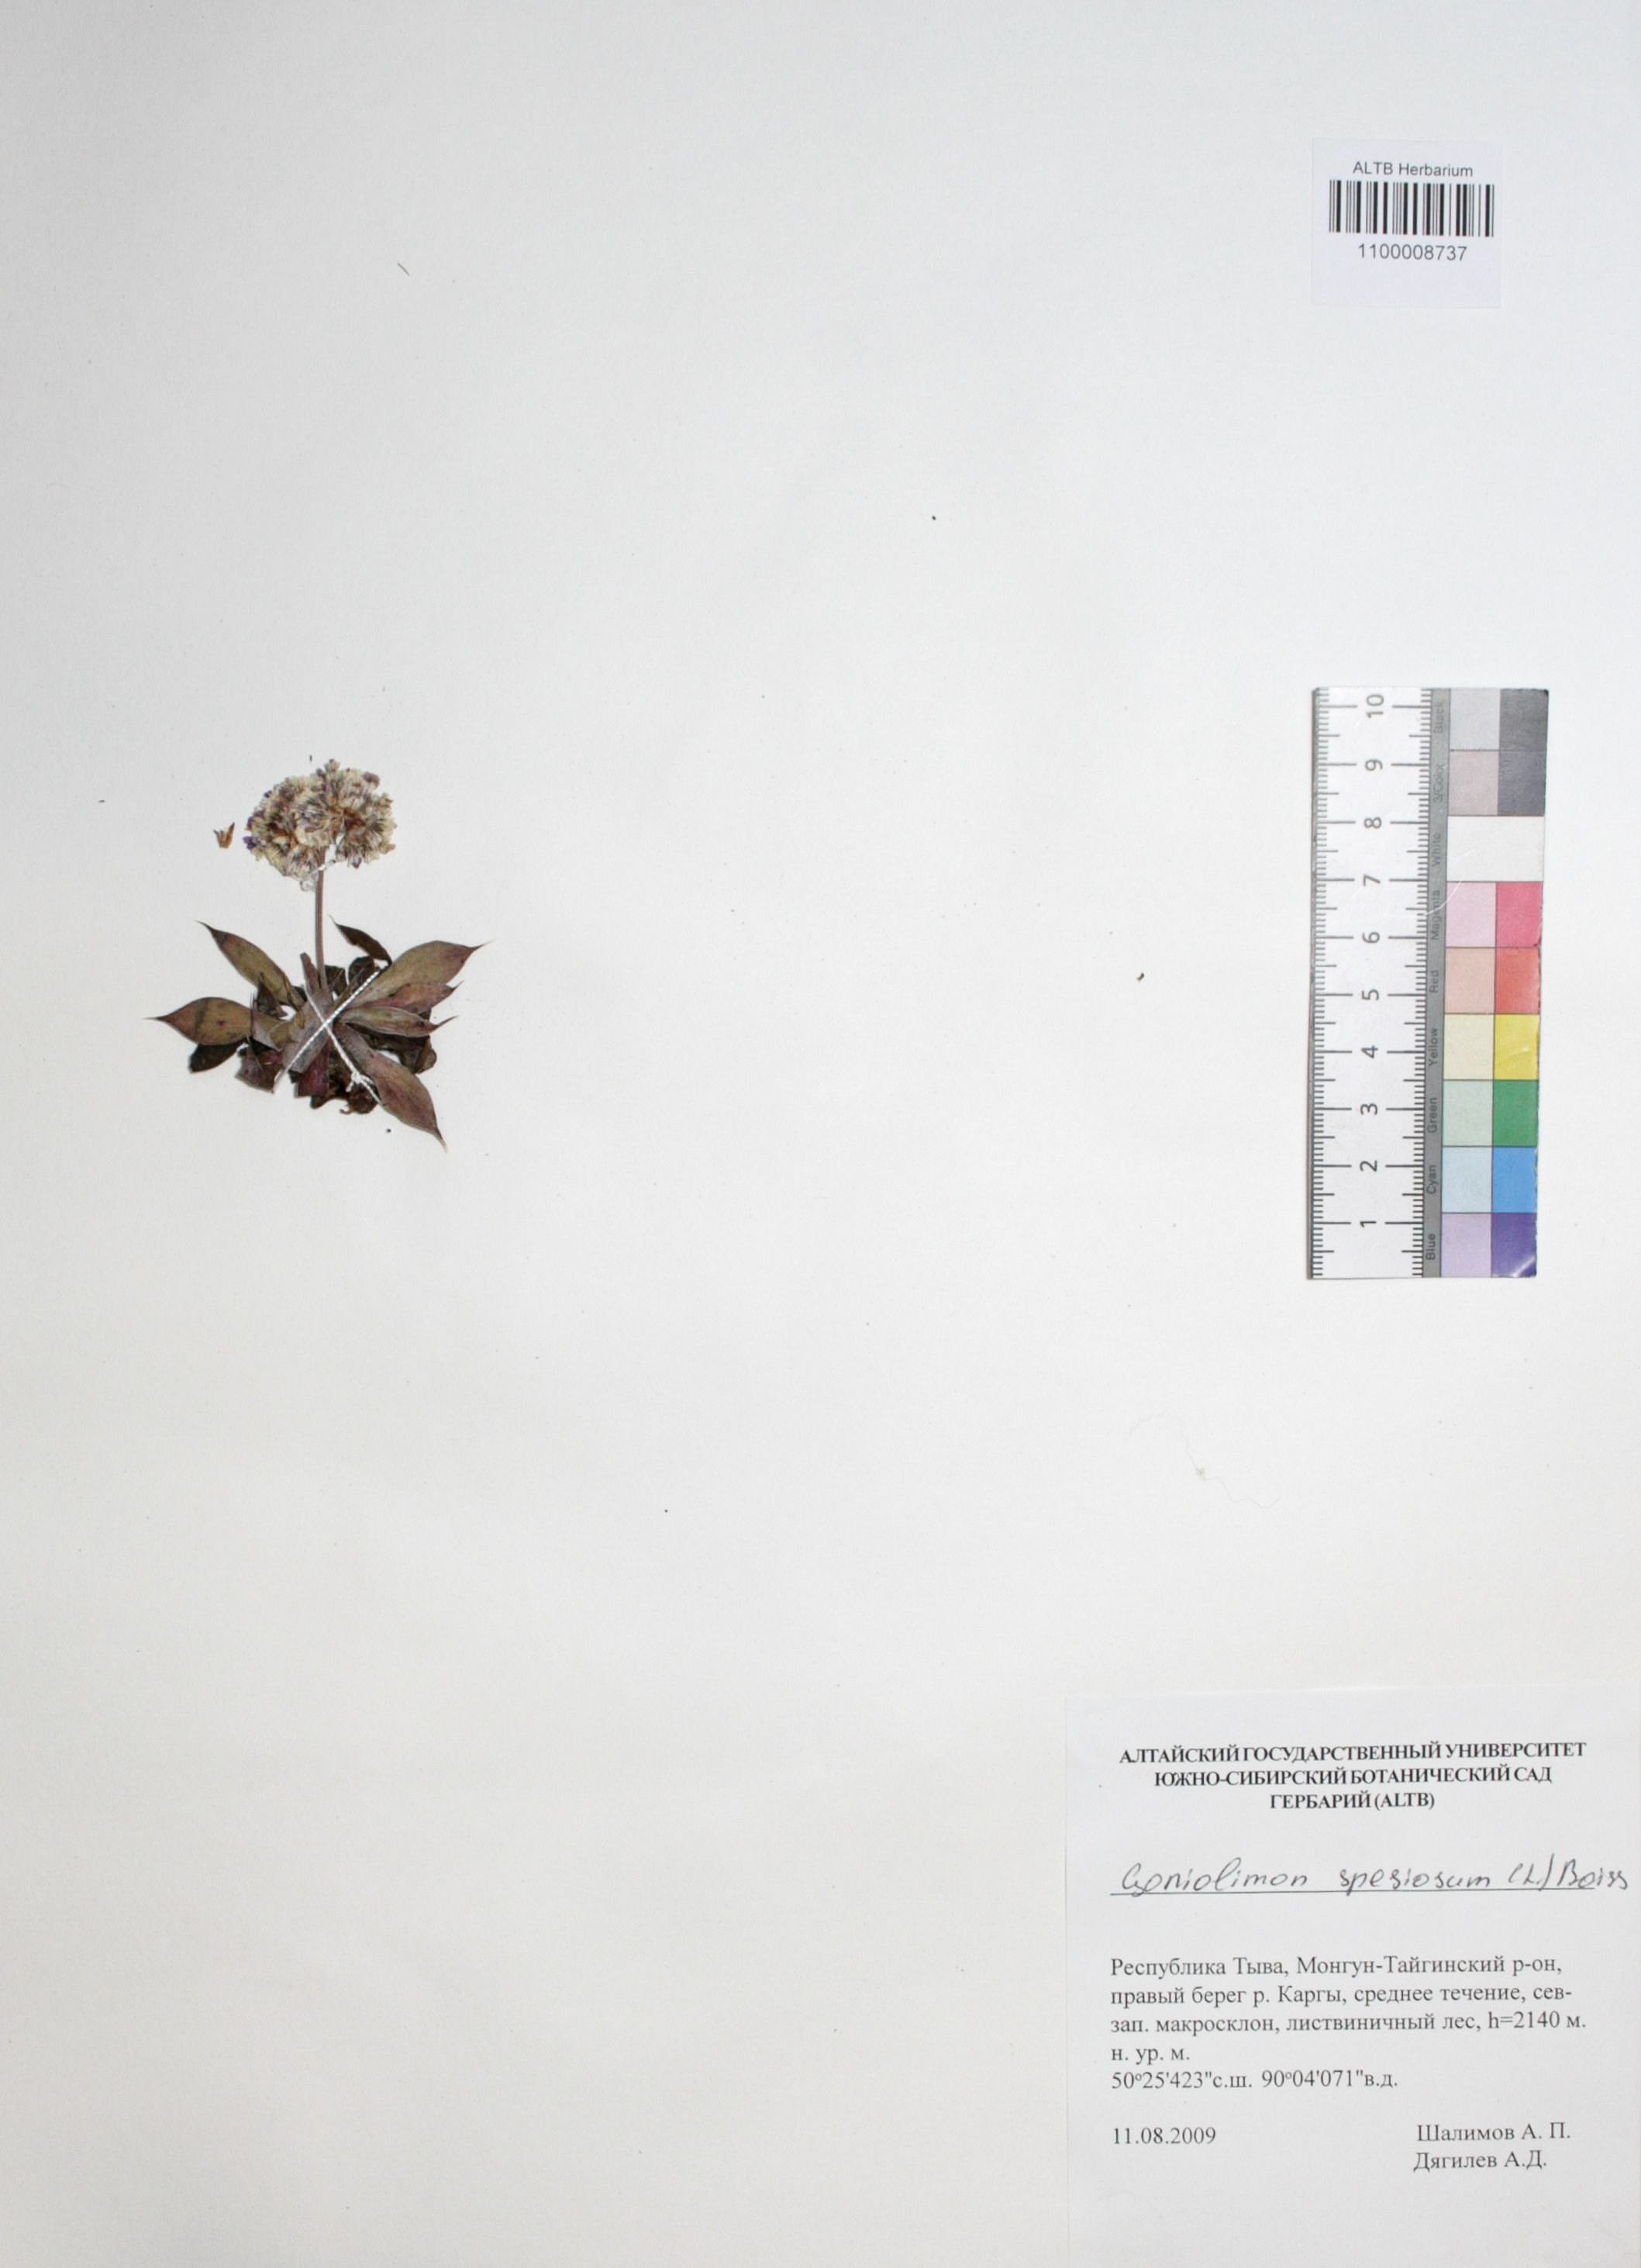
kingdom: Plantae
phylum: Tracheophyta
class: Magnoliopsida
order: Caryophyllales
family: Plumbaginaceae
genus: Goniolimon
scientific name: Goniolimon speciosum
